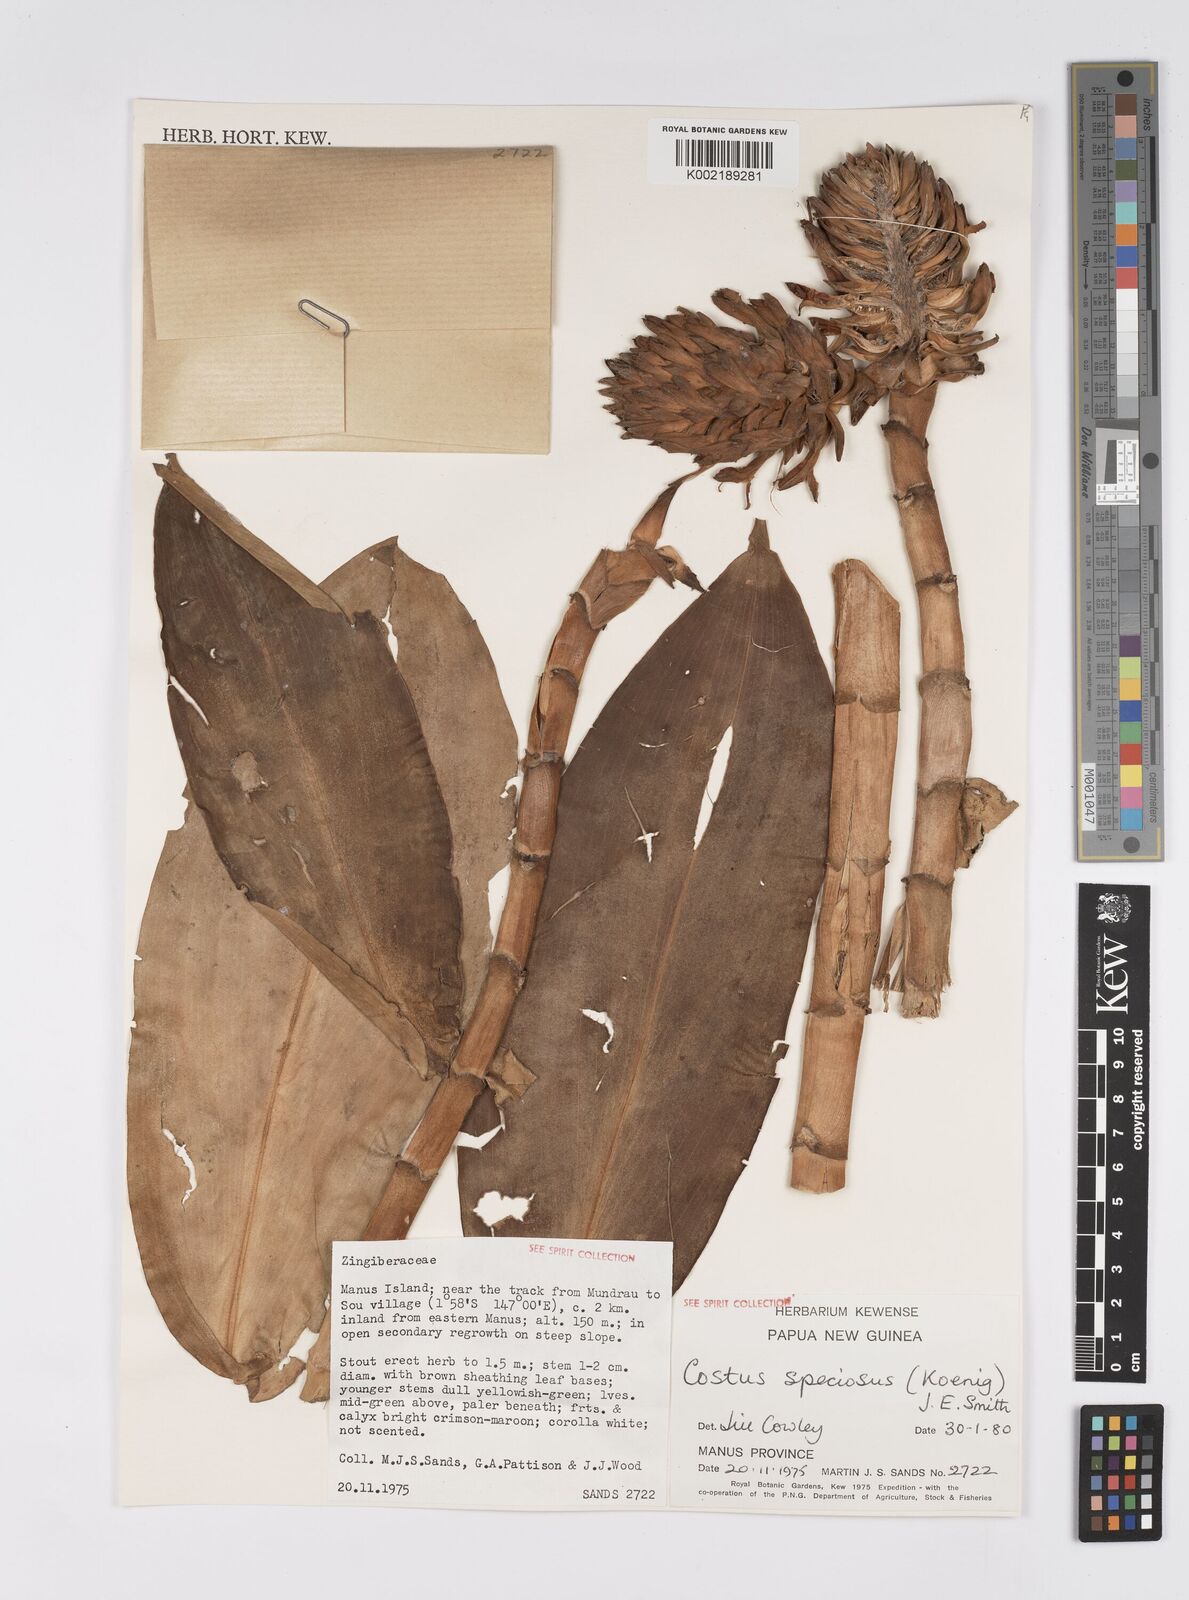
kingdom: Plantae
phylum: Tracheophyta
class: Liliopsida
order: Zingiberales
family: Costaceae
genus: Hellenia
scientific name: Hellenia speciosa
